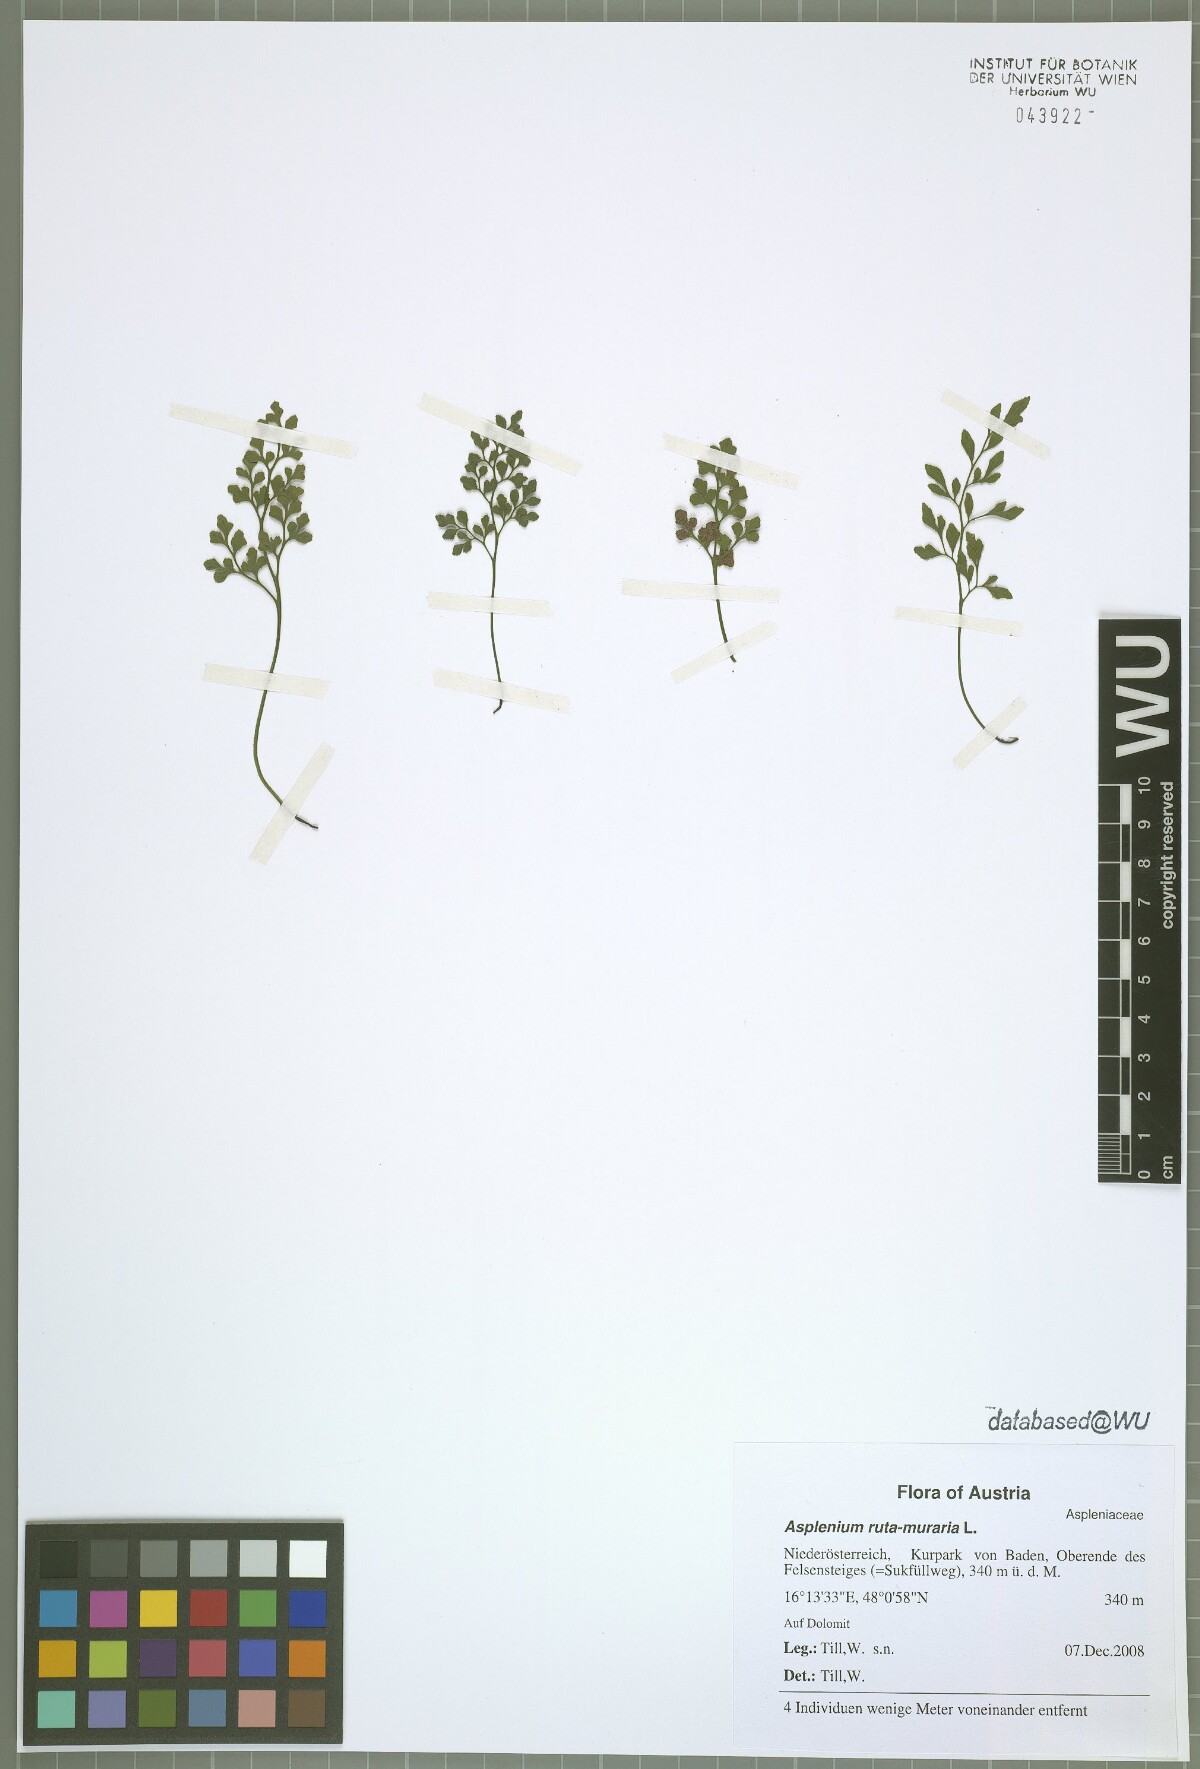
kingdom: Plantae
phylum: Tracheophyta
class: Polypodiopsida
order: Polypodiales
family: Aspleniaceae
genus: Asplenium
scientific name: Asplenium ruta-muraria
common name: Wall-rue
